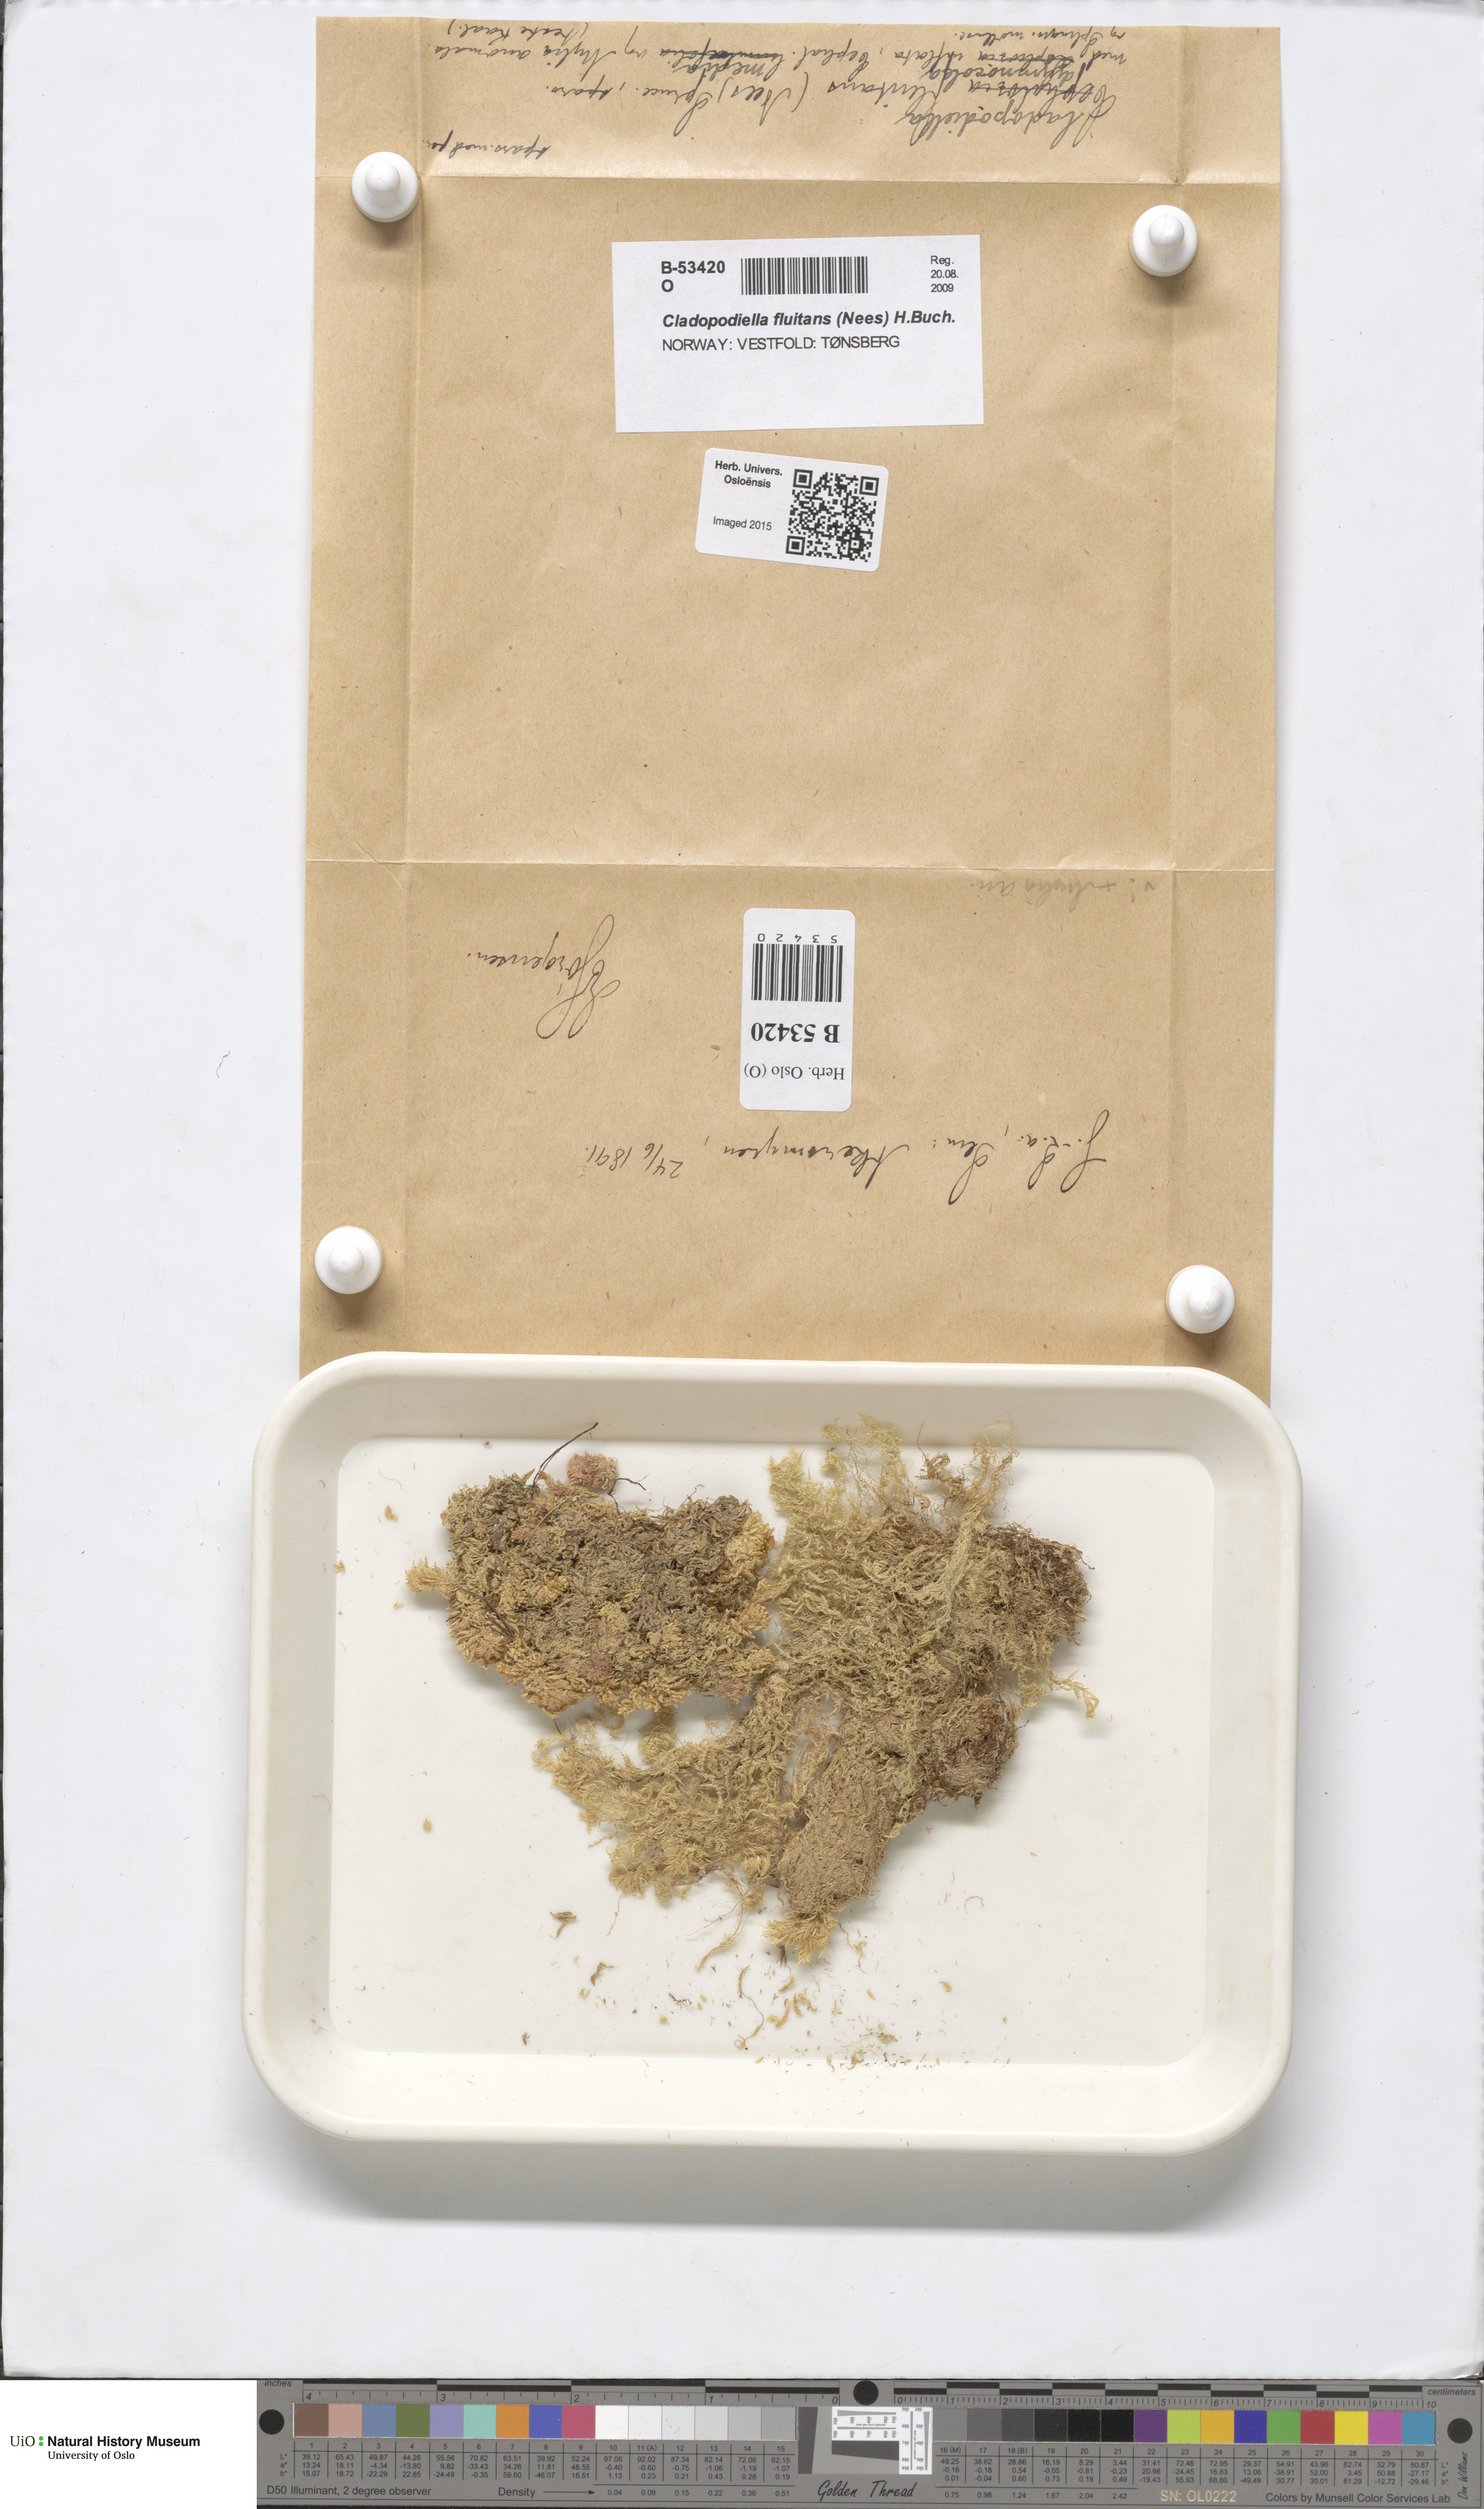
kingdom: Plantae
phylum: Marchantiophyta
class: Jungermanniopsida
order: Jungermanniales
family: Cephaloziaceae
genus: Odontoschisma
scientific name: Odontoschisma fluitans
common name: Cladopodiella moss
